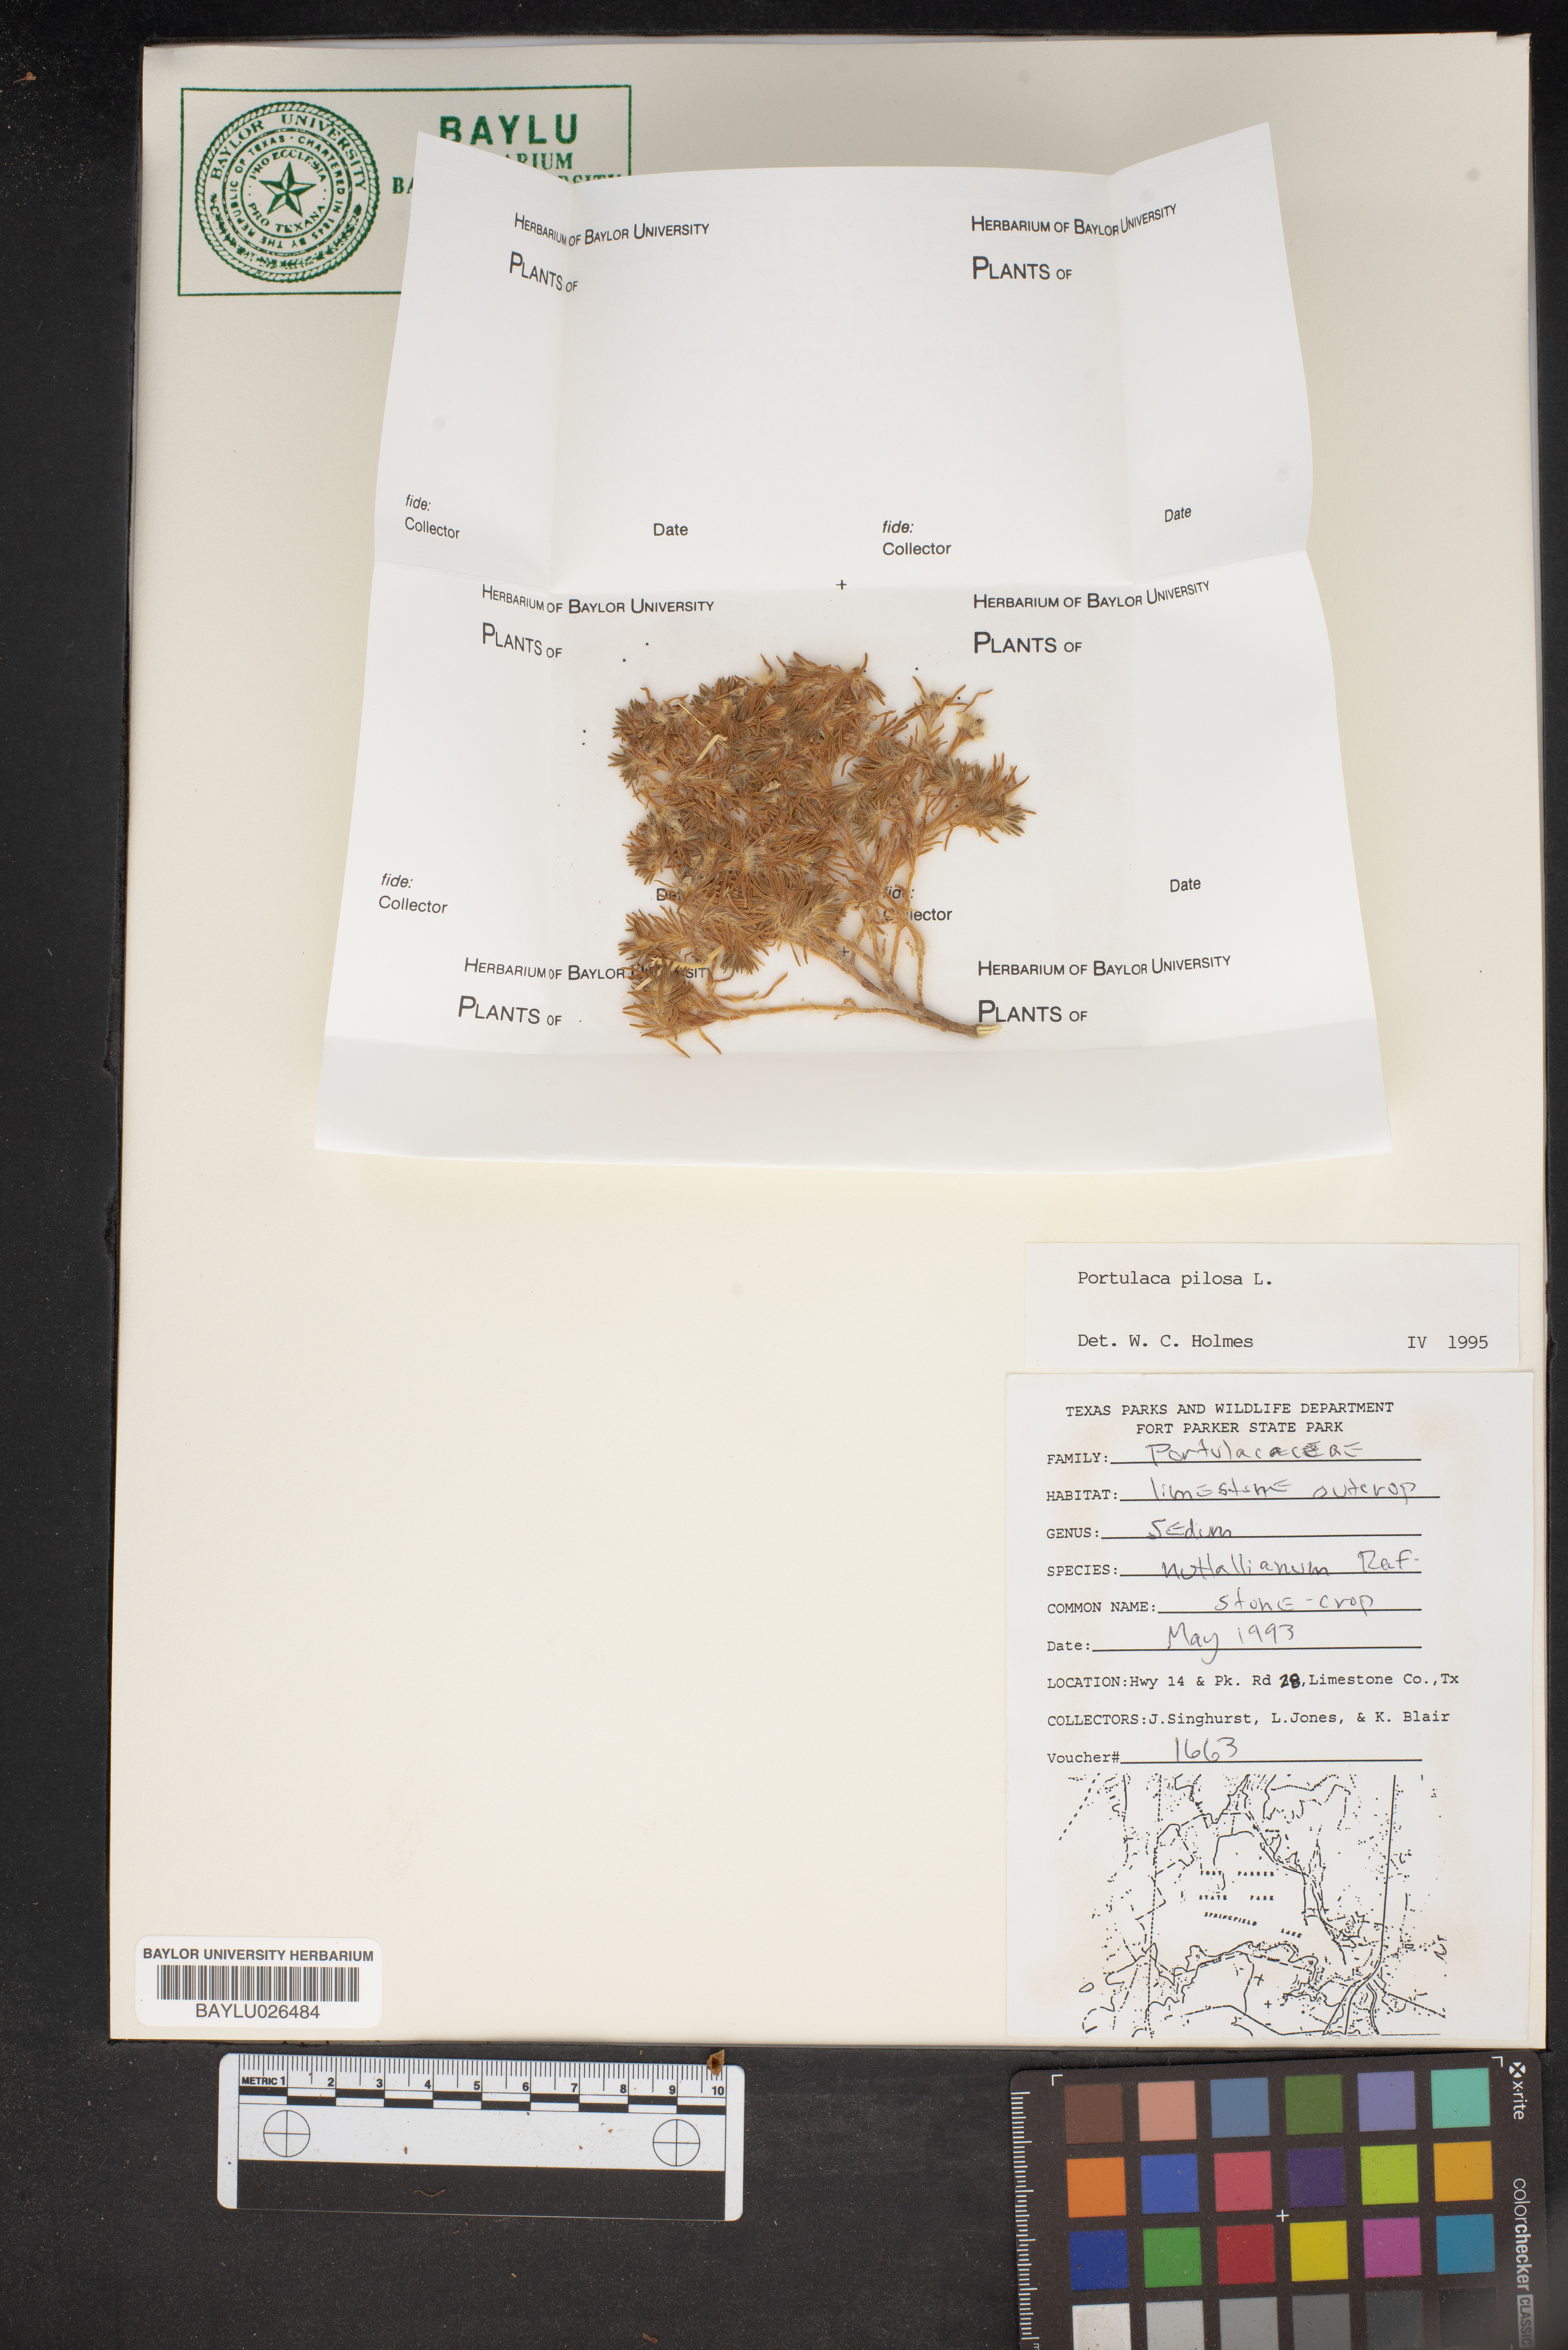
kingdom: Plantae
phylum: Tracheophyta
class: Magnoliopsida
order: Saxifragales
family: Crassulaceae
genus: Sedum
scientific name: Sedum nuttallii
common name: Yellow stonecrop
